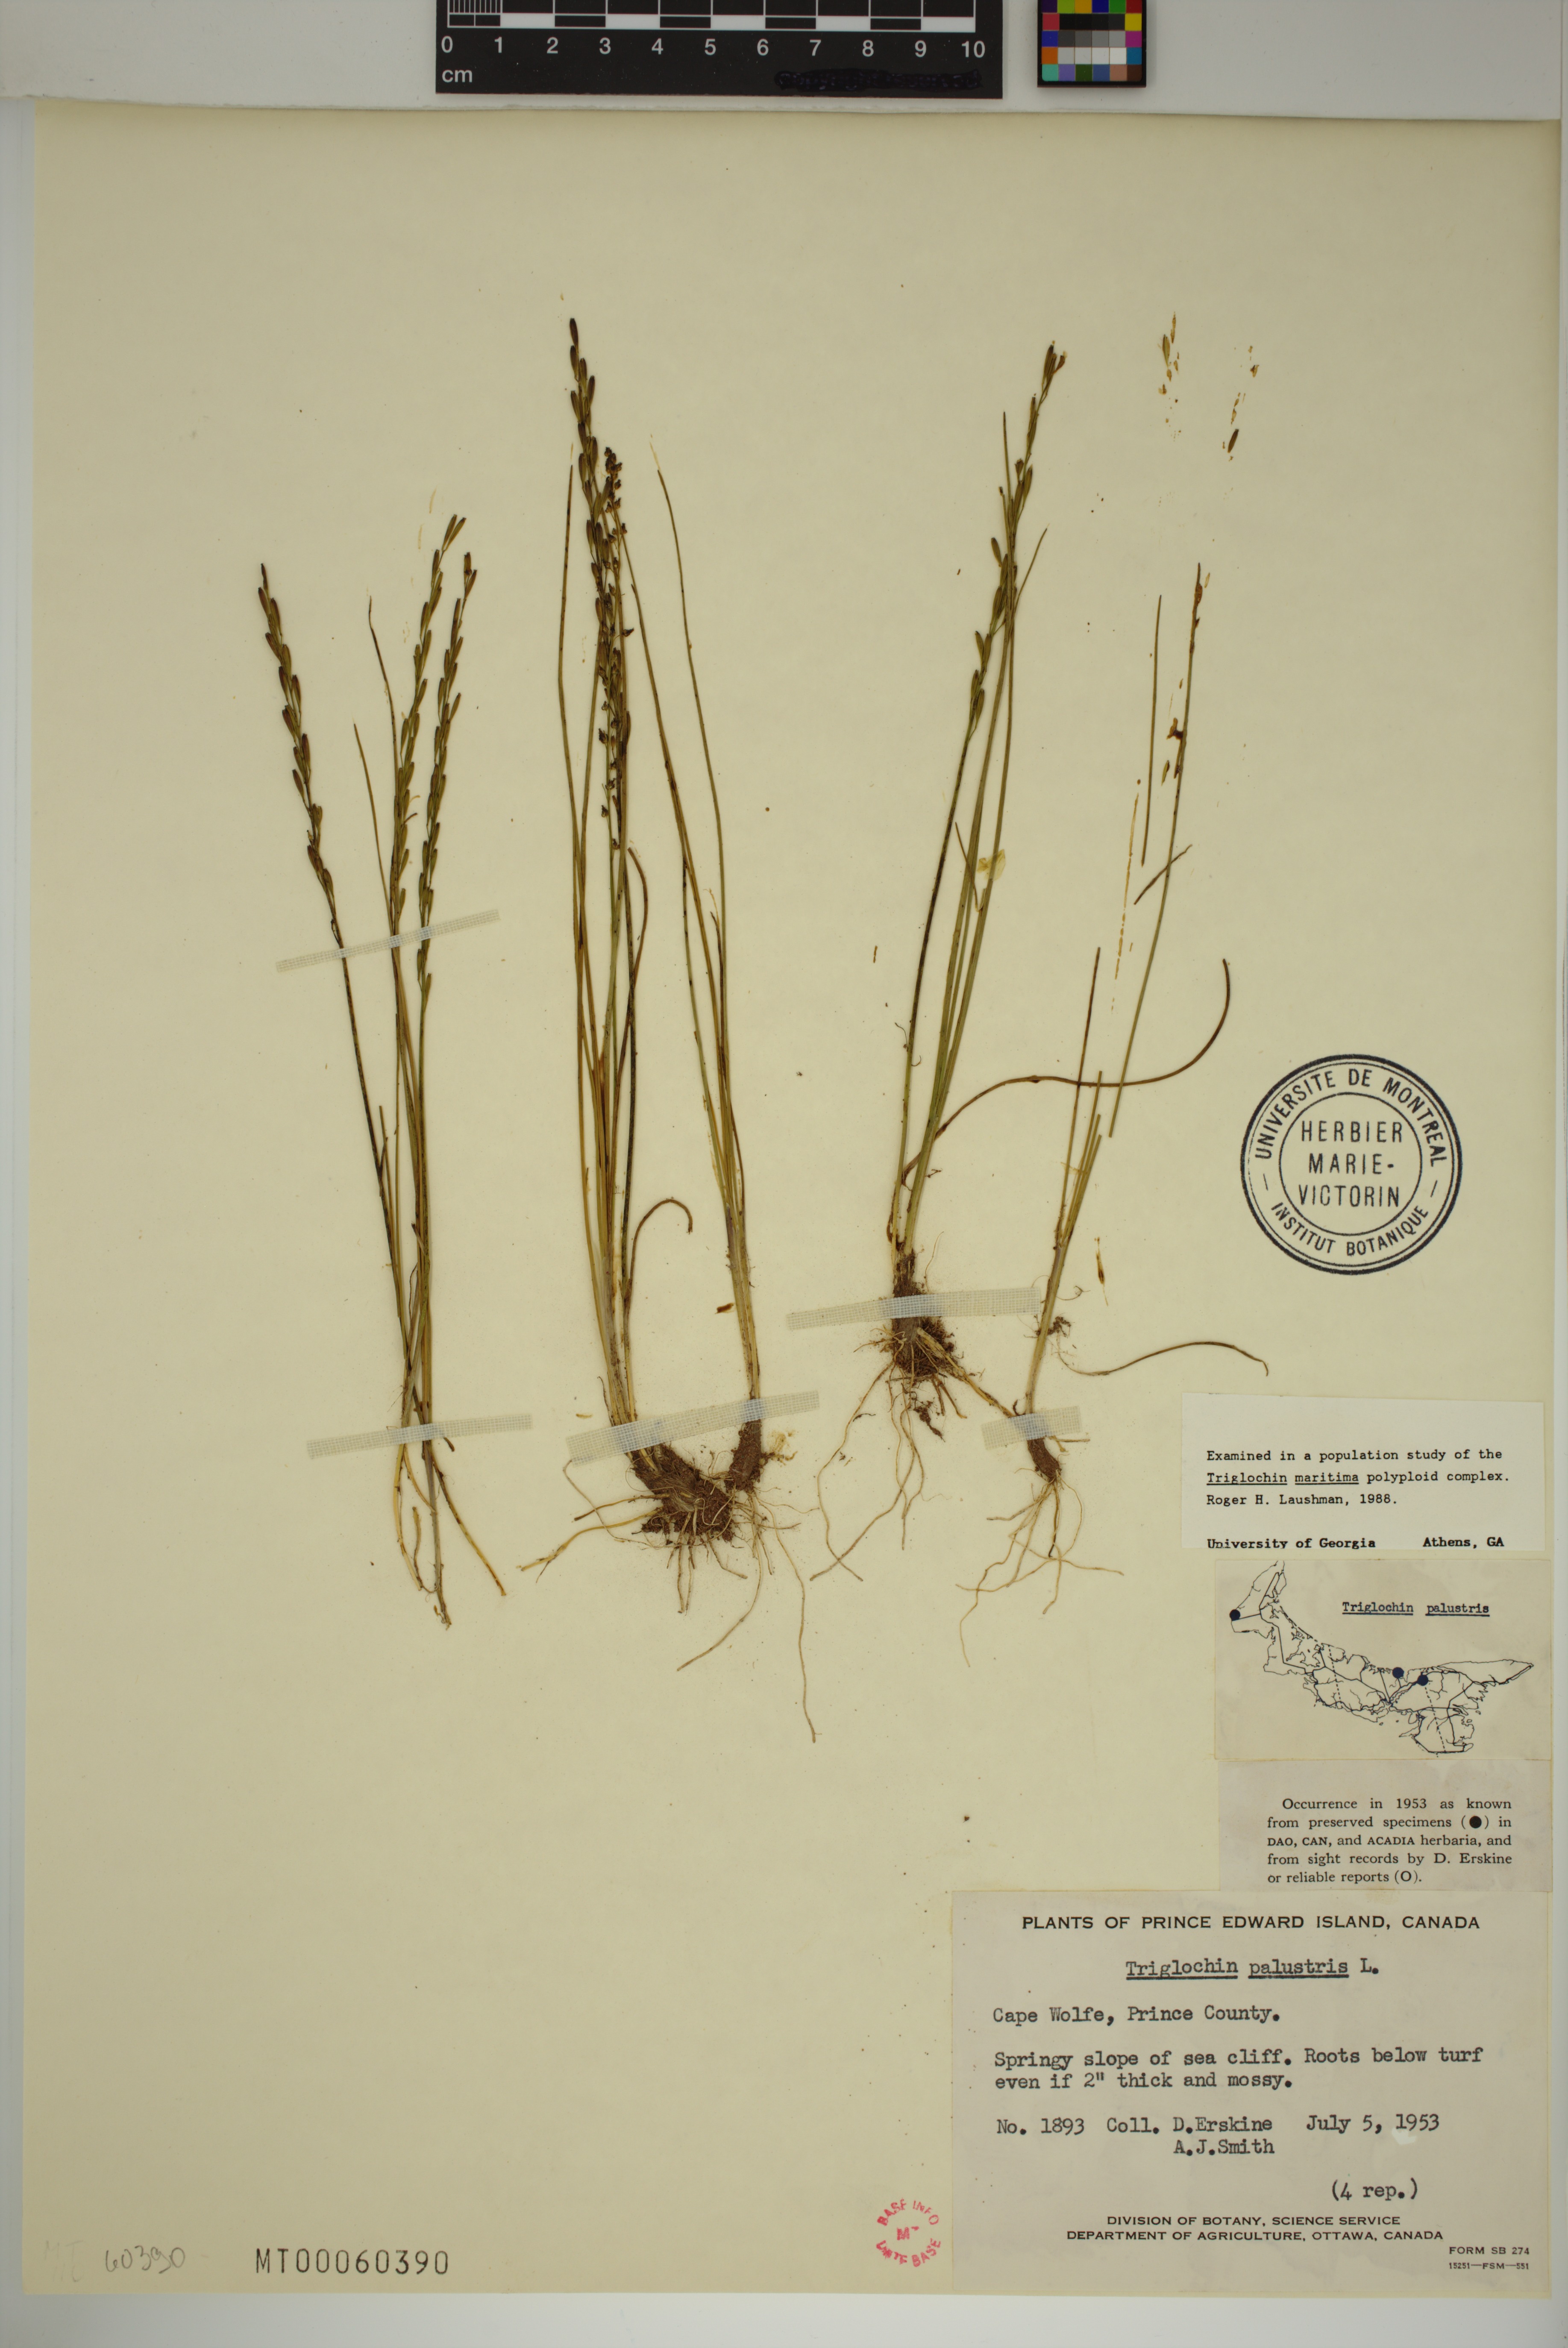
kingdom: Plantae
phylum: Tracheophyta
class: Liliopsida
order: Alismatales
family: Juncaginaceae
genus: Triglochin
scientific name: Triglochin palustris
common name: Marsh arrowgrass
